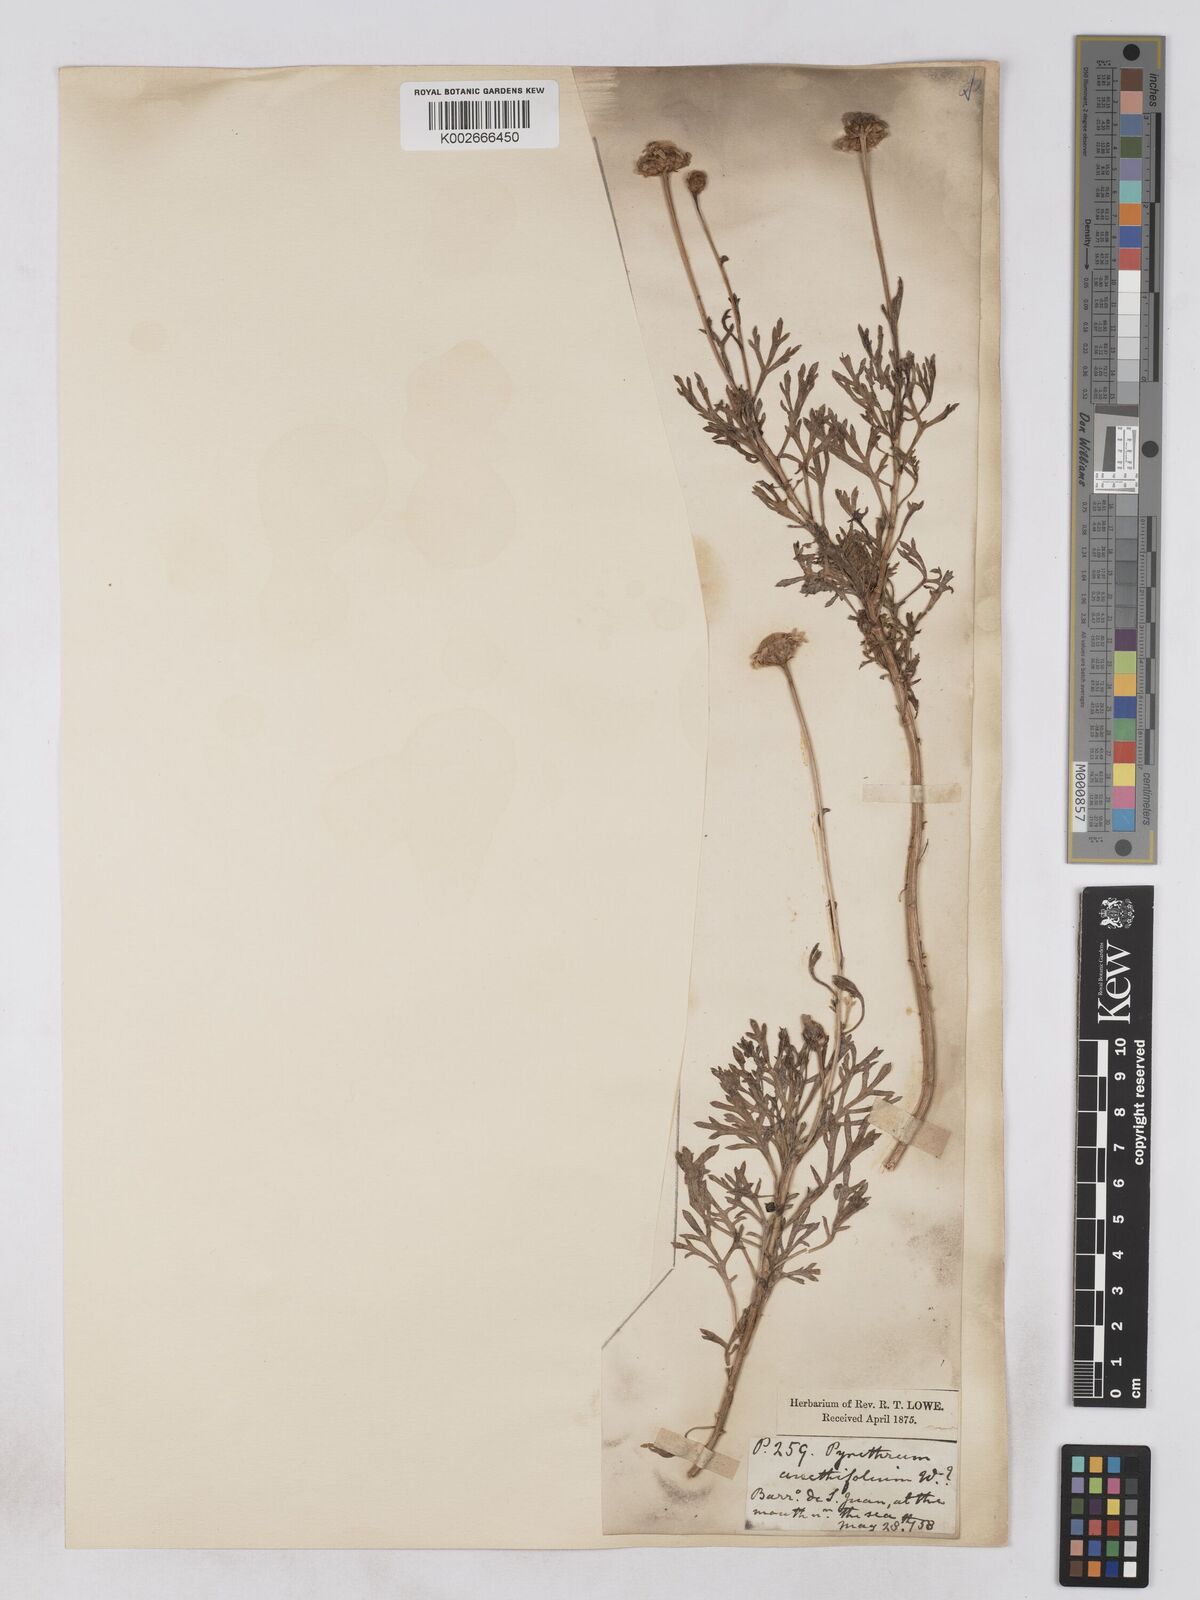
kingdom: Plantae
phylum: Tracheophyta
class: Magnoliopsida
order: Asterales
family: Asteraceae
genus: Argyranthemum
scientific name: Argyranthemum tenerifae
